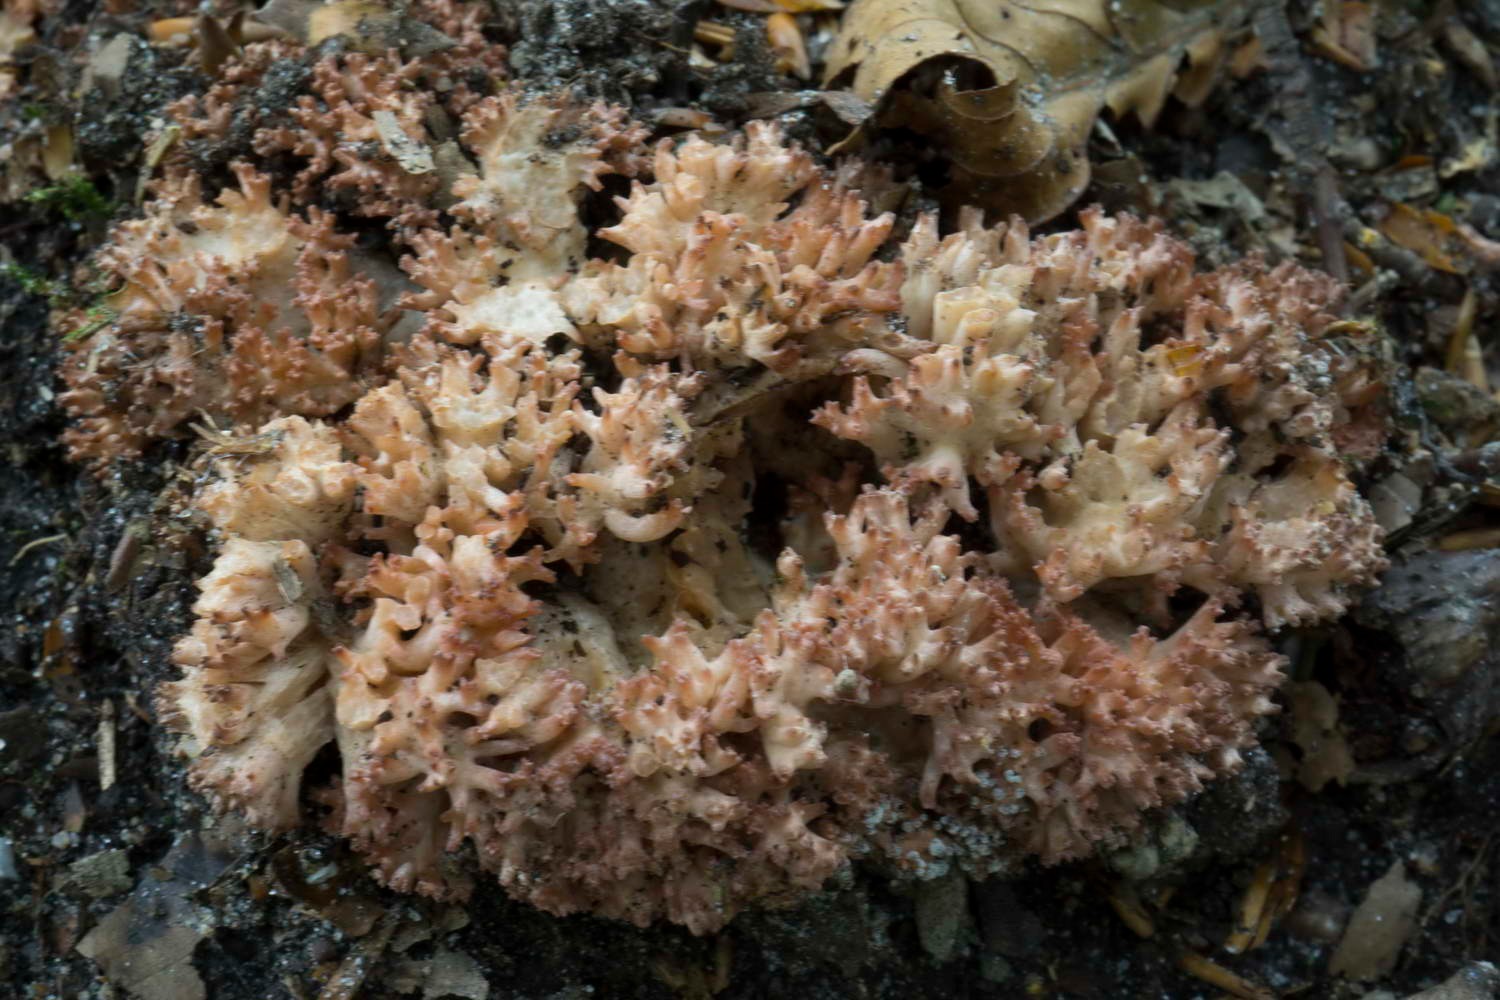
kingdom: Fungi
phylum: Basidiomycota
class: Agaricomycetes
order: Gomphales
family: Gomphaceae
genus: Ramaria
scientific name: Ramaria botrytis
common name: drue-koralsvamp
